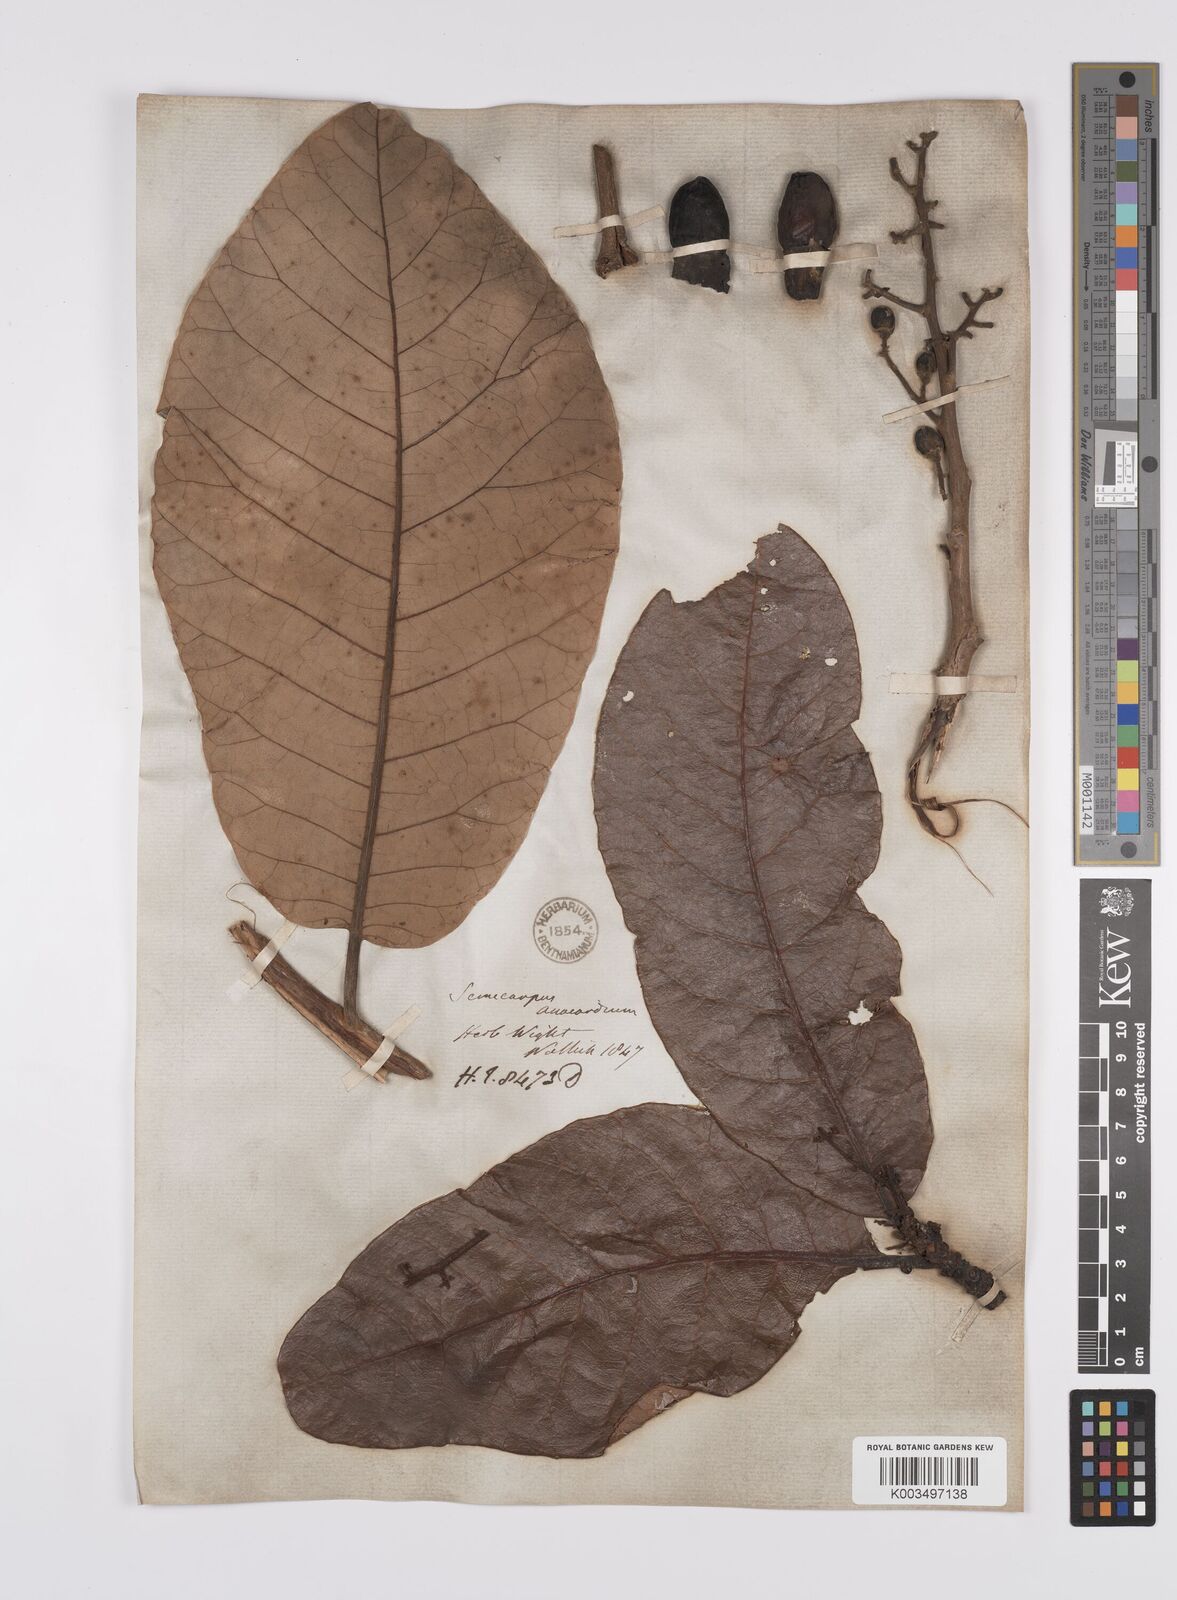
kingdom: Plantae
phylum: Tracheophyta
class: Magnoliopsida
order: Sapindales
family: Anacardiaceae
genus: Semecarpus
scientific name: Semecarpus anacardium
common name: Marking nut-tree
